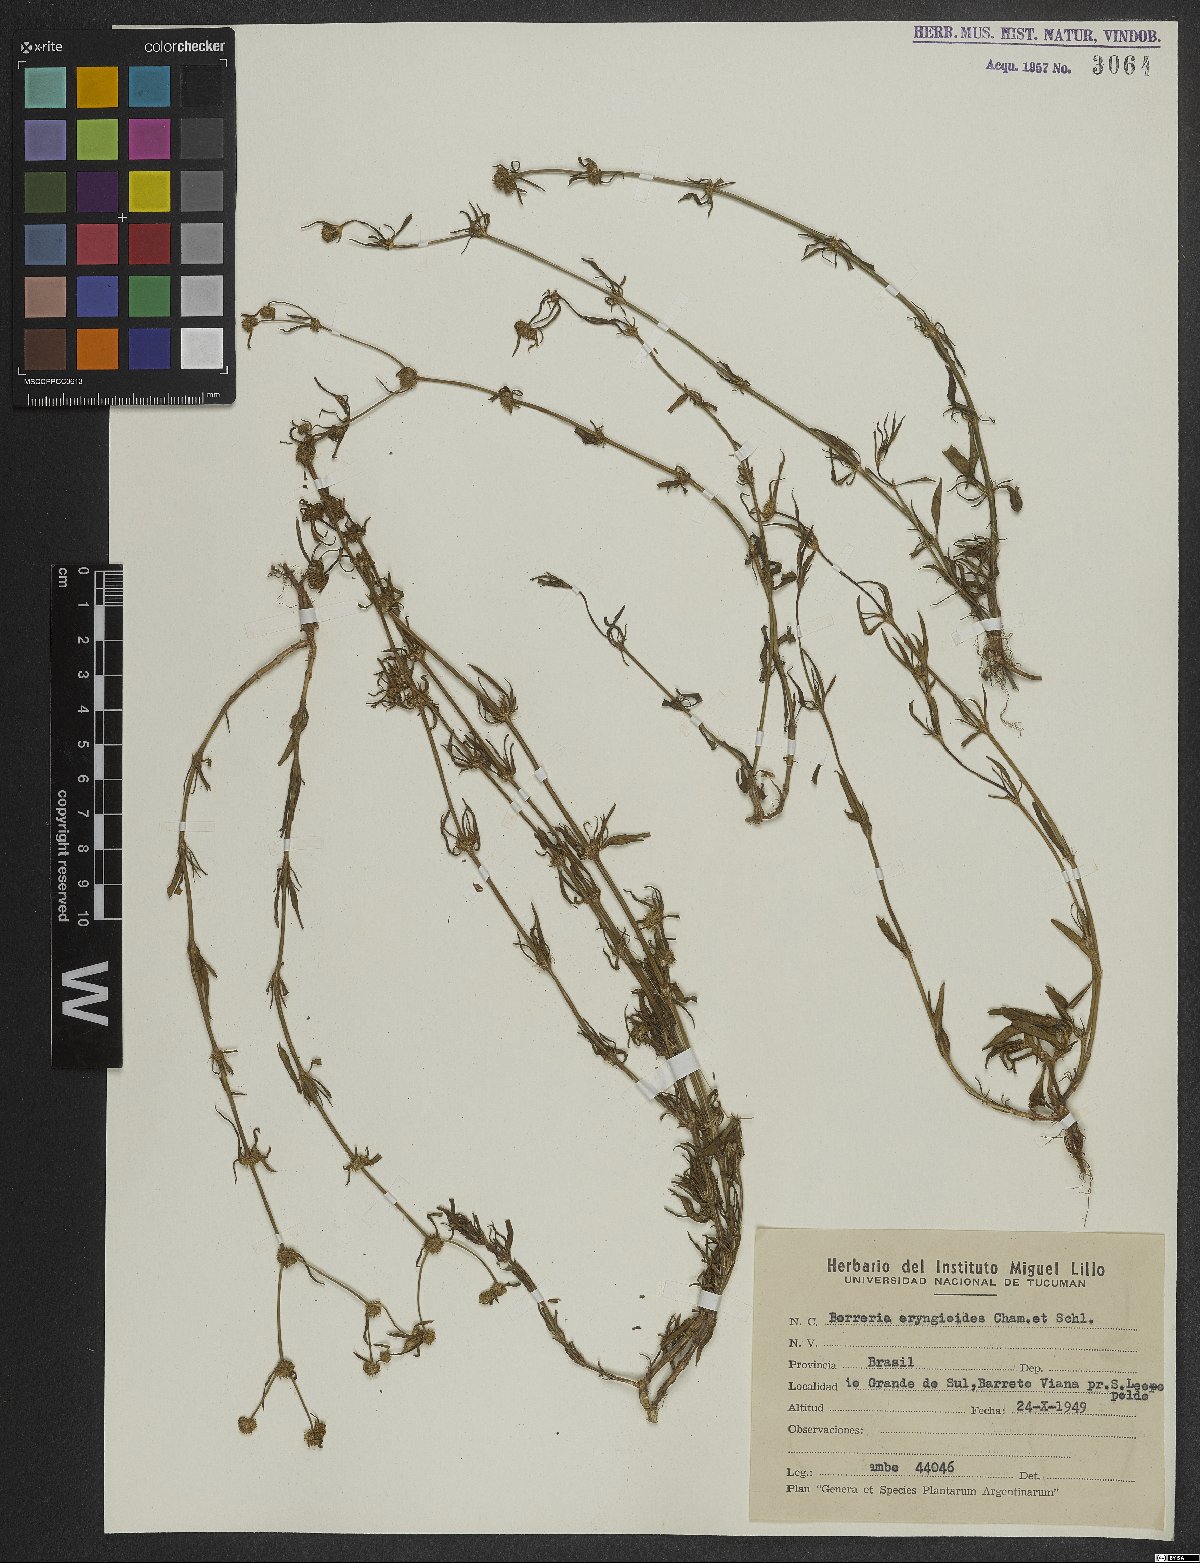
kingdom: Plantae
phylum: Tracheophyta
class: Magnoliopsida
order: Gentianales
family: Rubiaceae
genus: Spermacoce
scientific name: Spermacoce eryngioides
